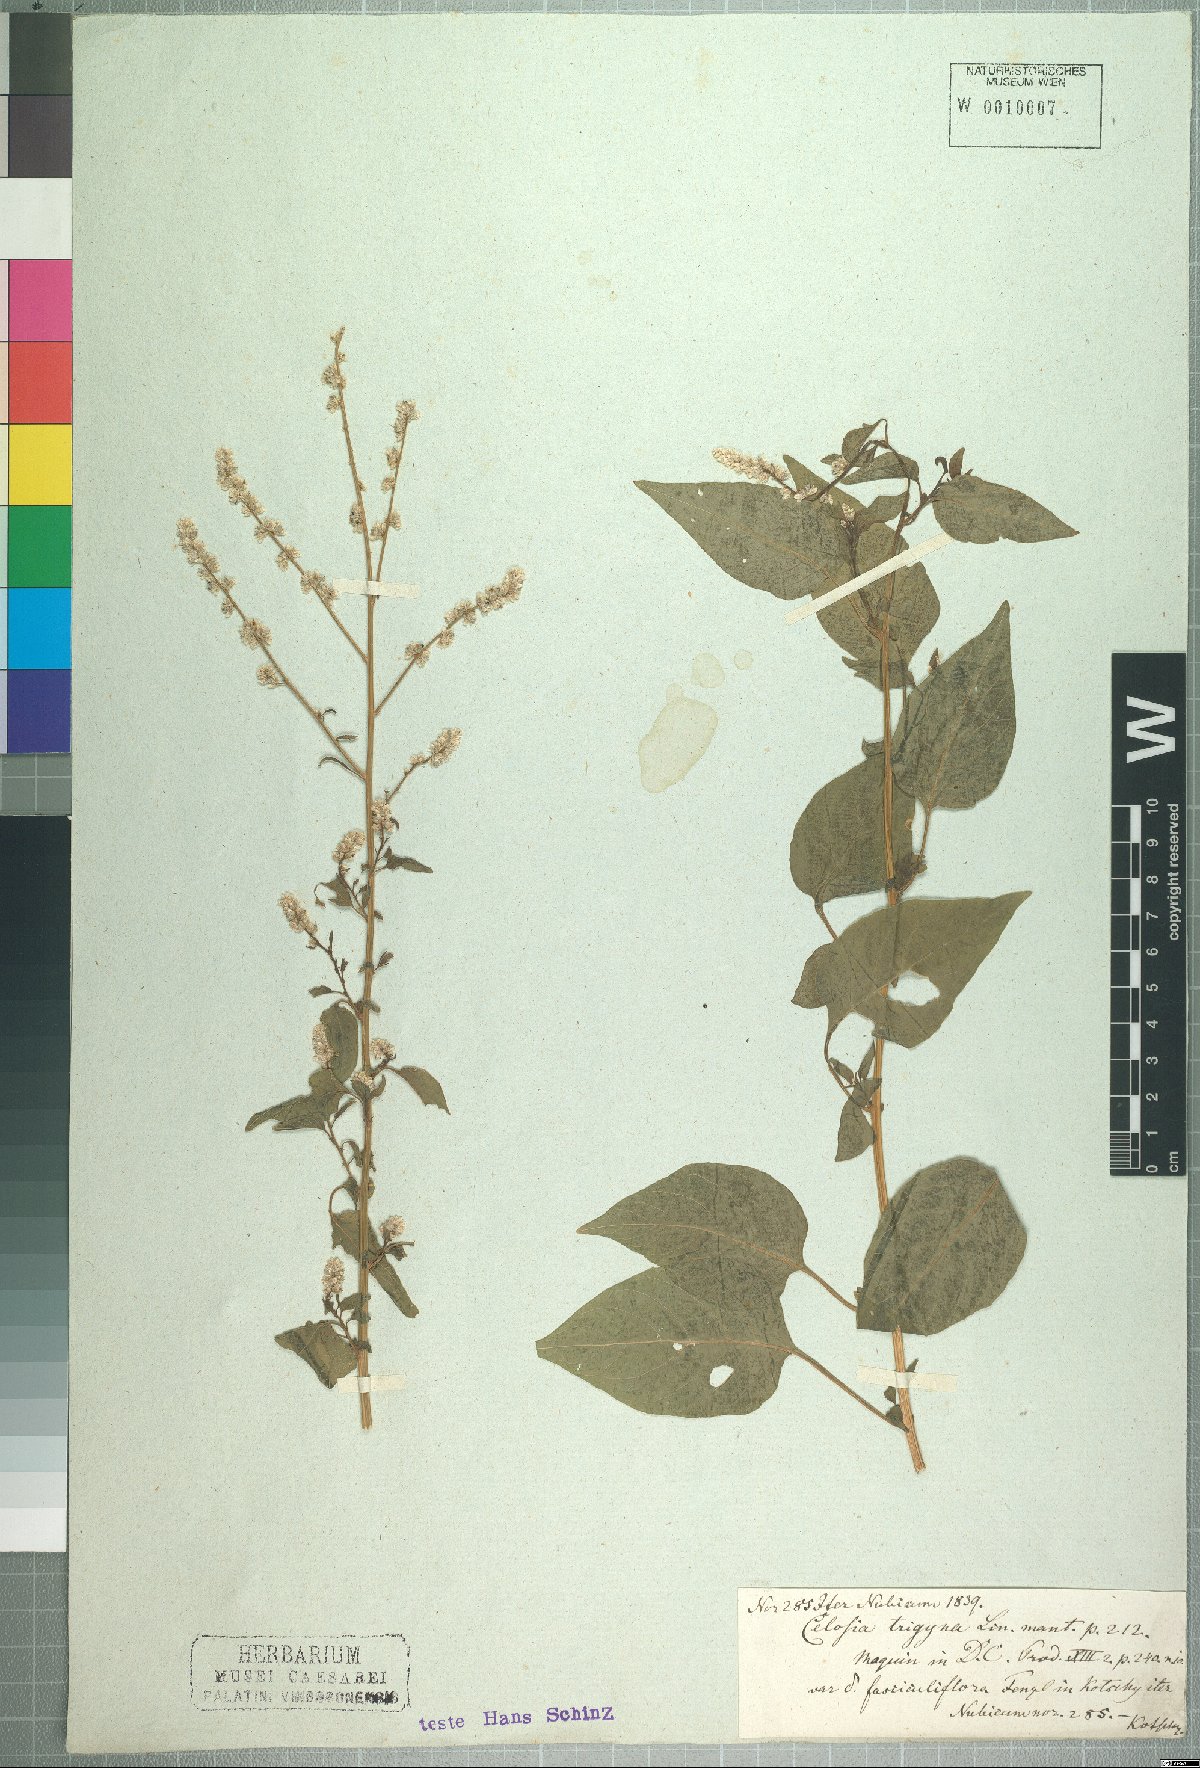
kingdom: Plantae
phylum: Tracheophyta
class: Magnoliopsida
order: Caryophyllales
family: Amaranthaceae
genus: Celosia
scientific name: Celosia trigyna
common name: Woolflower
